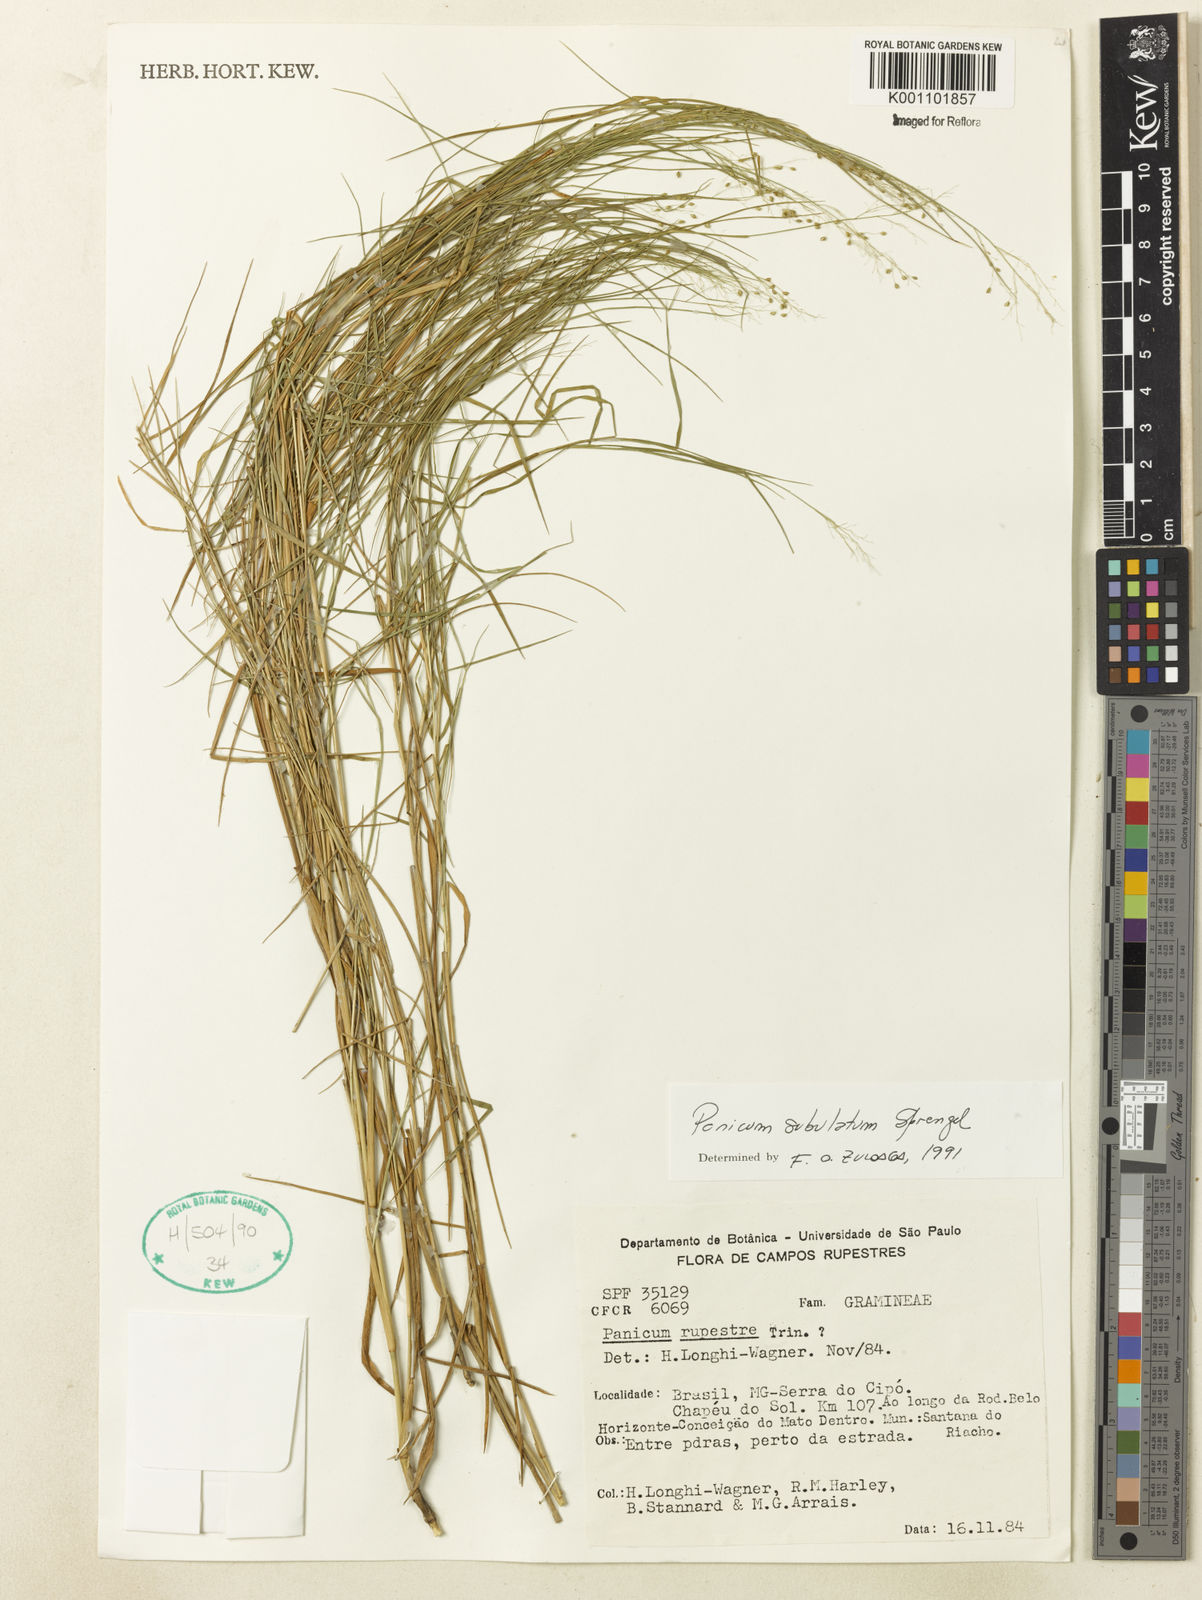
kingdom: Plantae
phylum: Tracheophyta
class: Liliopsida
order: Poales
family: Poaceae
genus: Trichanthecium
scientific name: Trichanthecium distichophyllum
